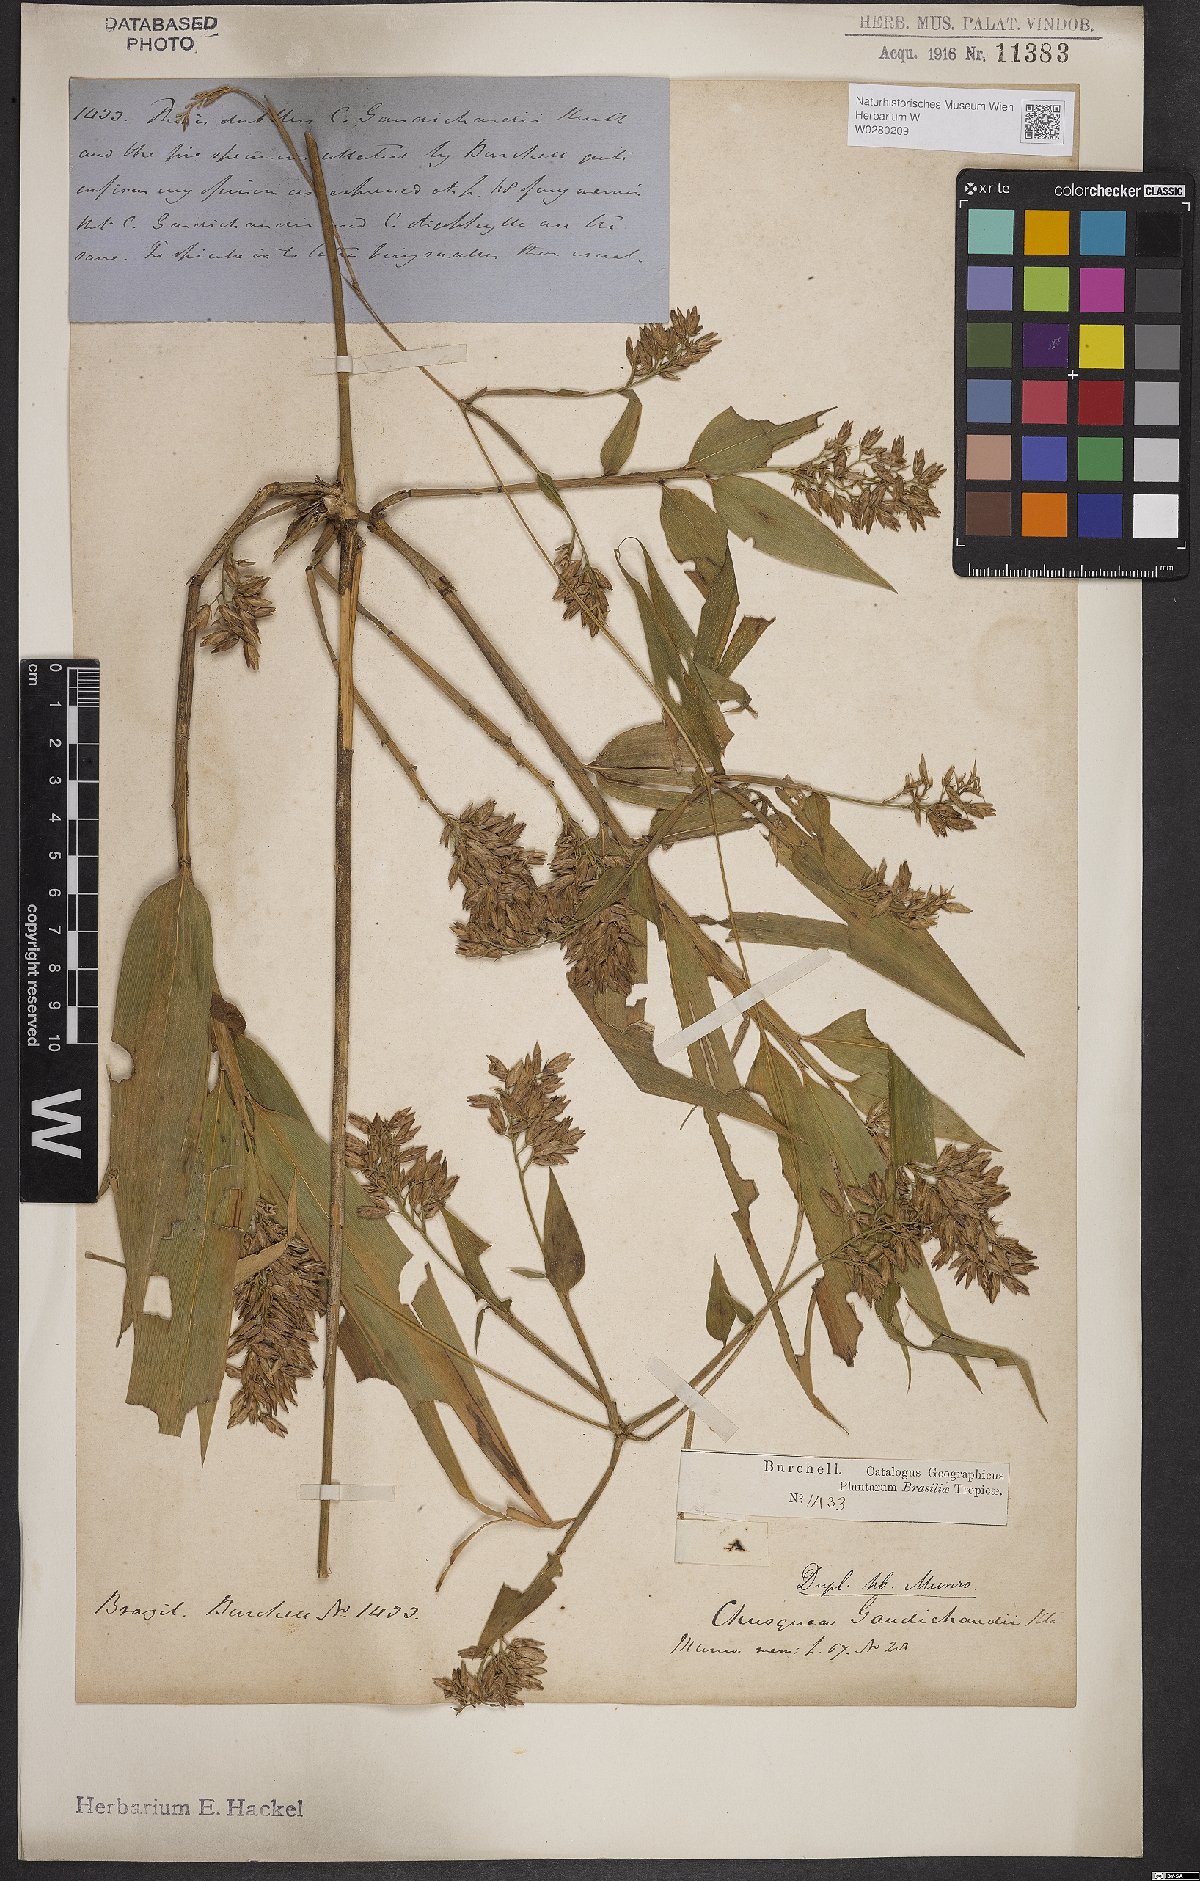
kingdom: Plantae
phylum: Tracheophyta
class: Liliopsida
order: Poales
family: Poaceae
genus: Chusquea
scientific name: Chusquea bambusoides
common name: Brazil scrambling bamboo
